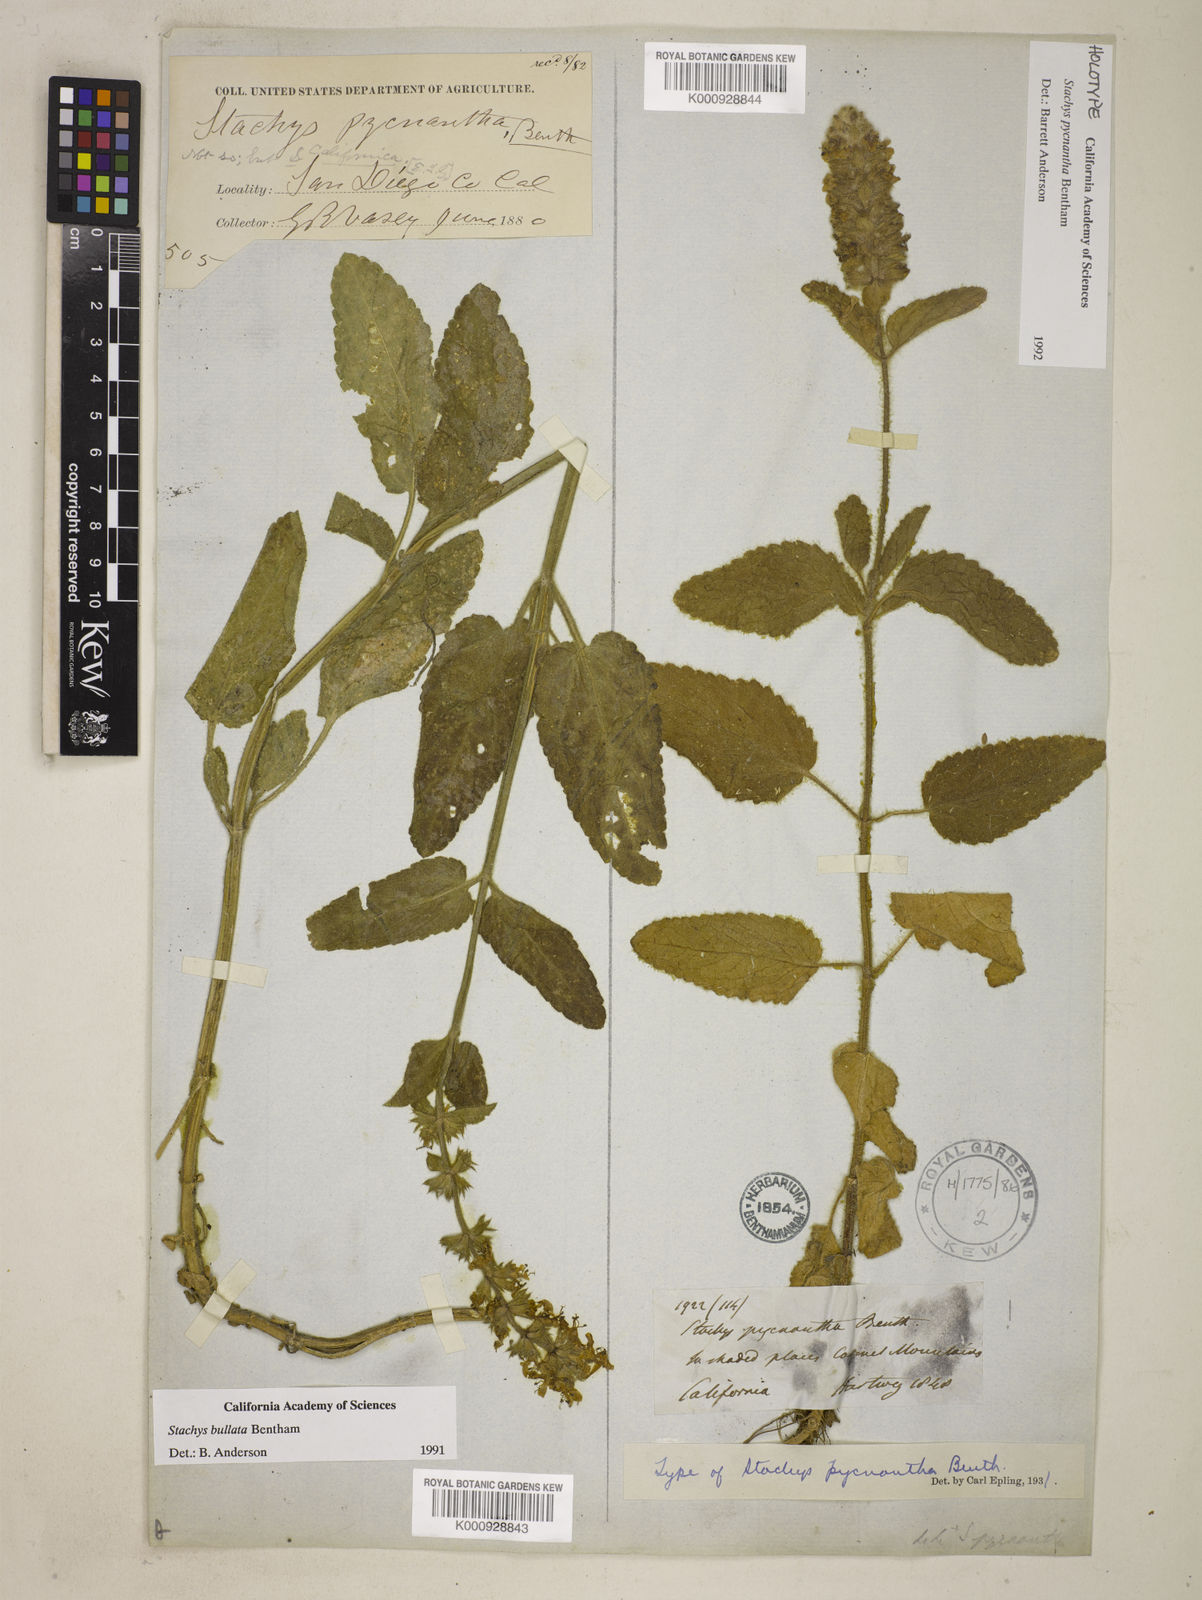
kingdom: Plantae
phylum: Tracheophyta
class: Magnoliopsida
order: Lamiales
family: Lamiaceae
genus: Stachys
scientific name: Stachys pycnantha
